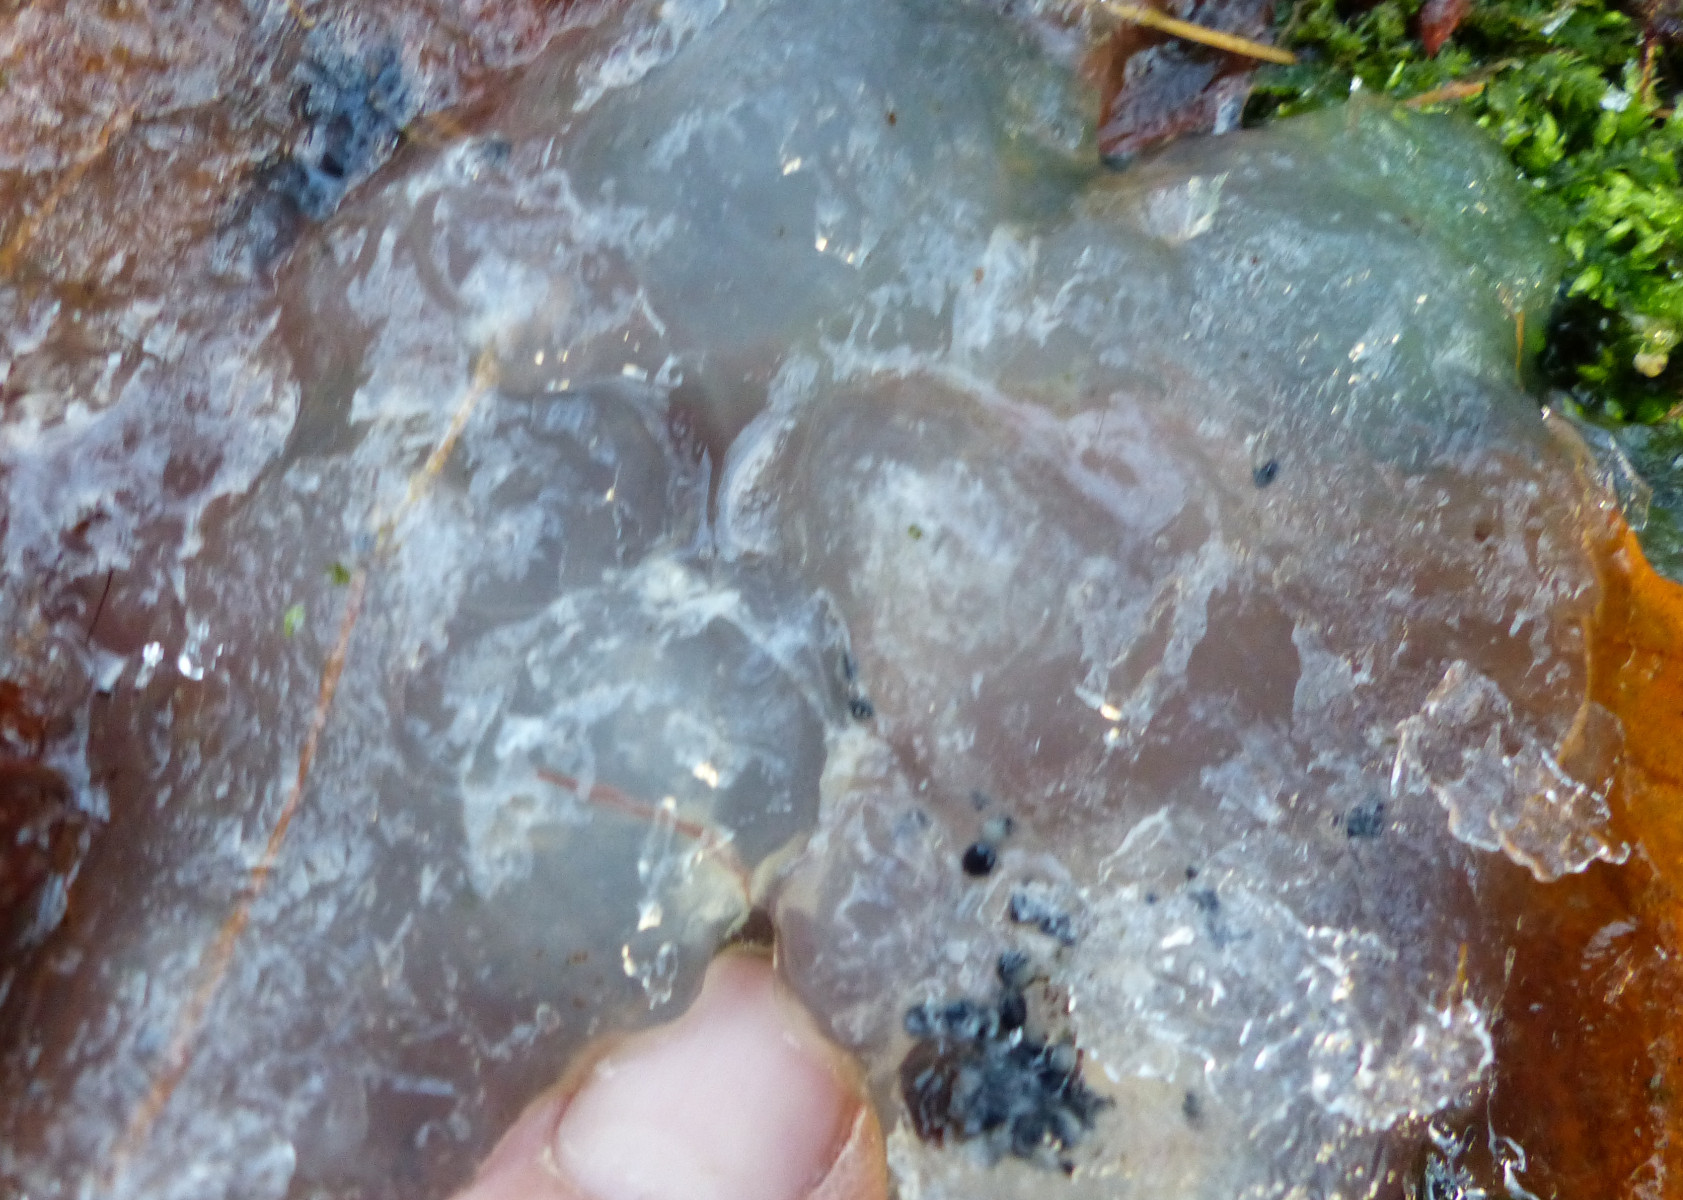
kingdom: Fungi
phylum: Basidiomycota
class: Agaricomycetes
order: Auriculariales
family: Hyaloriaceae
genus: Myxarium
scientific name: Myxarium nucleatum
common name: klar bævretop
